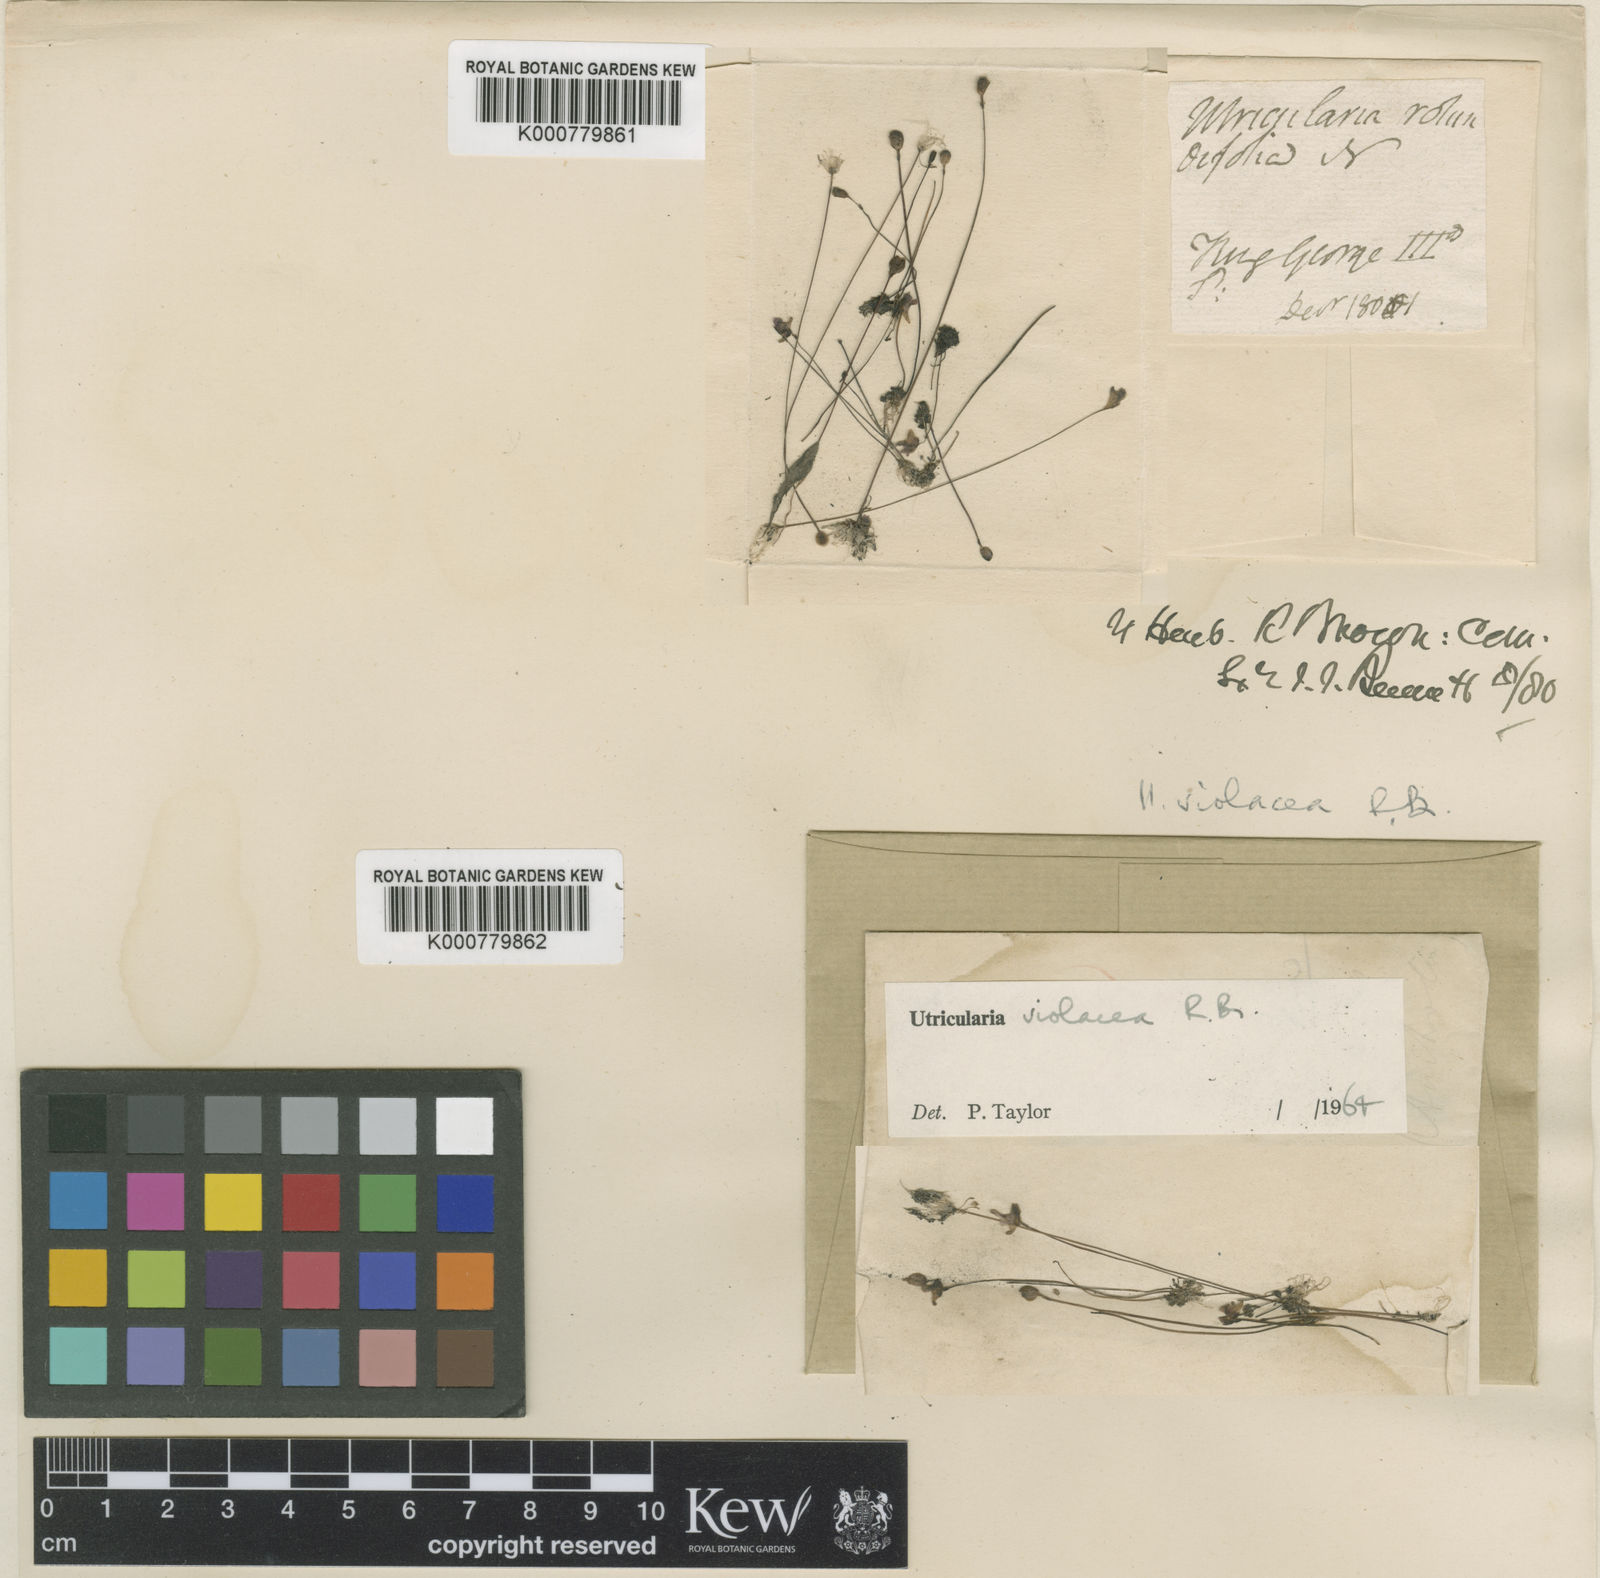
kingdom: Plantae
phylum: Tracheophyta
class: Magnoliopsida
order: Lamiales
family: Lentibulariaceae
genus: Utricularia
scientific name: Utricularia violacea
